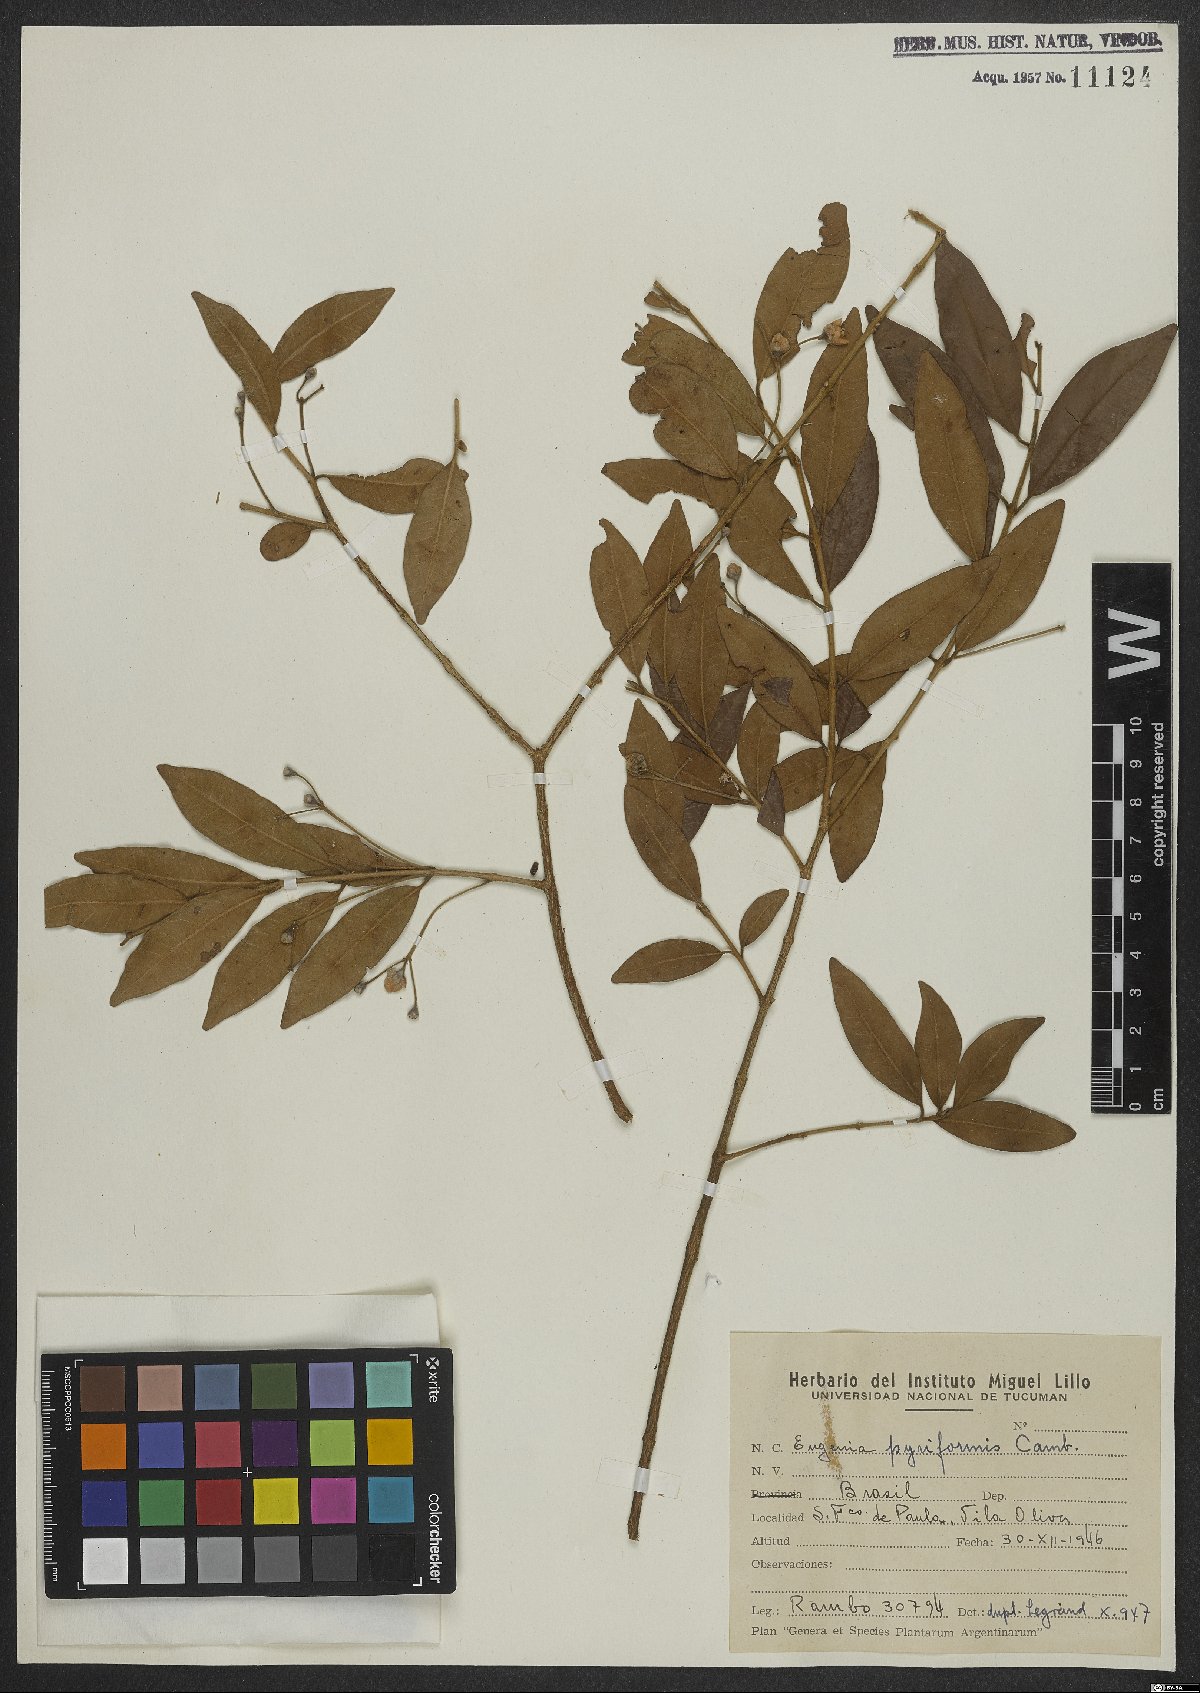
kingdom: Plantae
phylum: Tracheophyta
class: Magnoliopsida
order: Myrtales
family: Myrtaceae
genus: Eugenia
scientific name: Eugenia pyriformis
